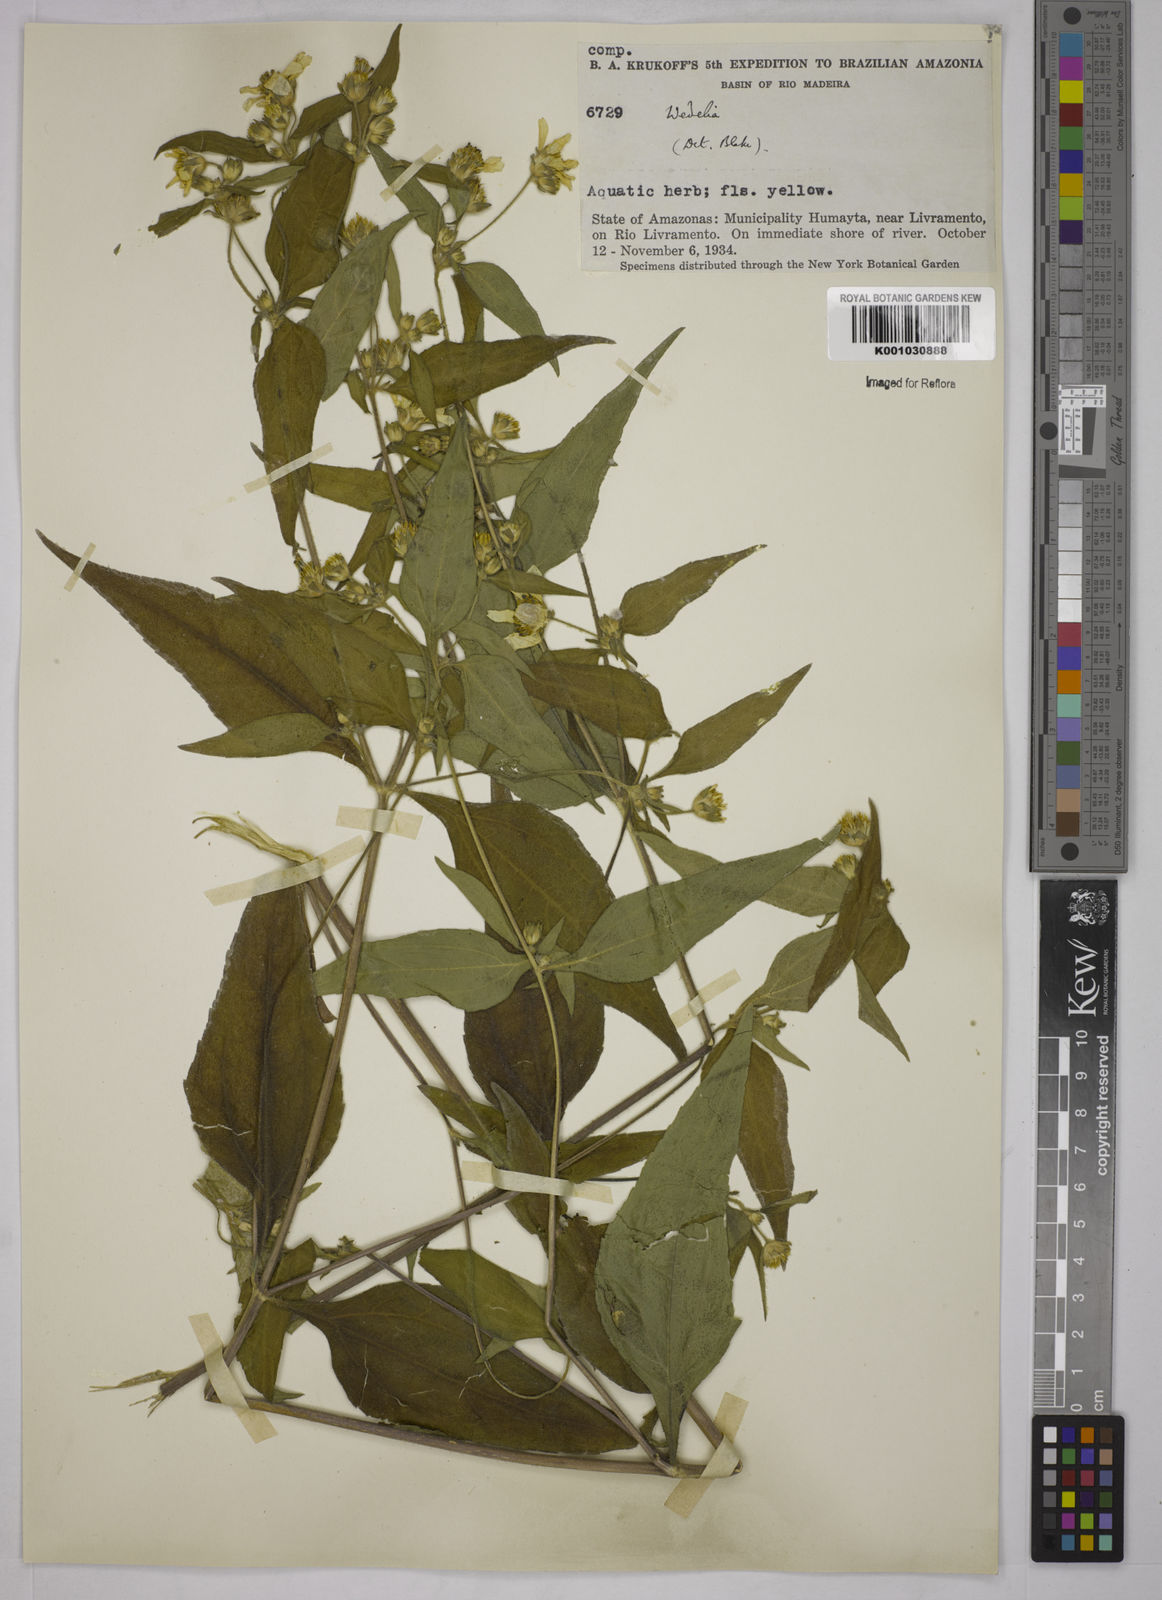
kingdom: Plantae
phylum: Tracheophyta
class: Magnoliopsida
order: Asterales
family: Asteraceae
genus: Wedelia
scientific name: Wedelia
